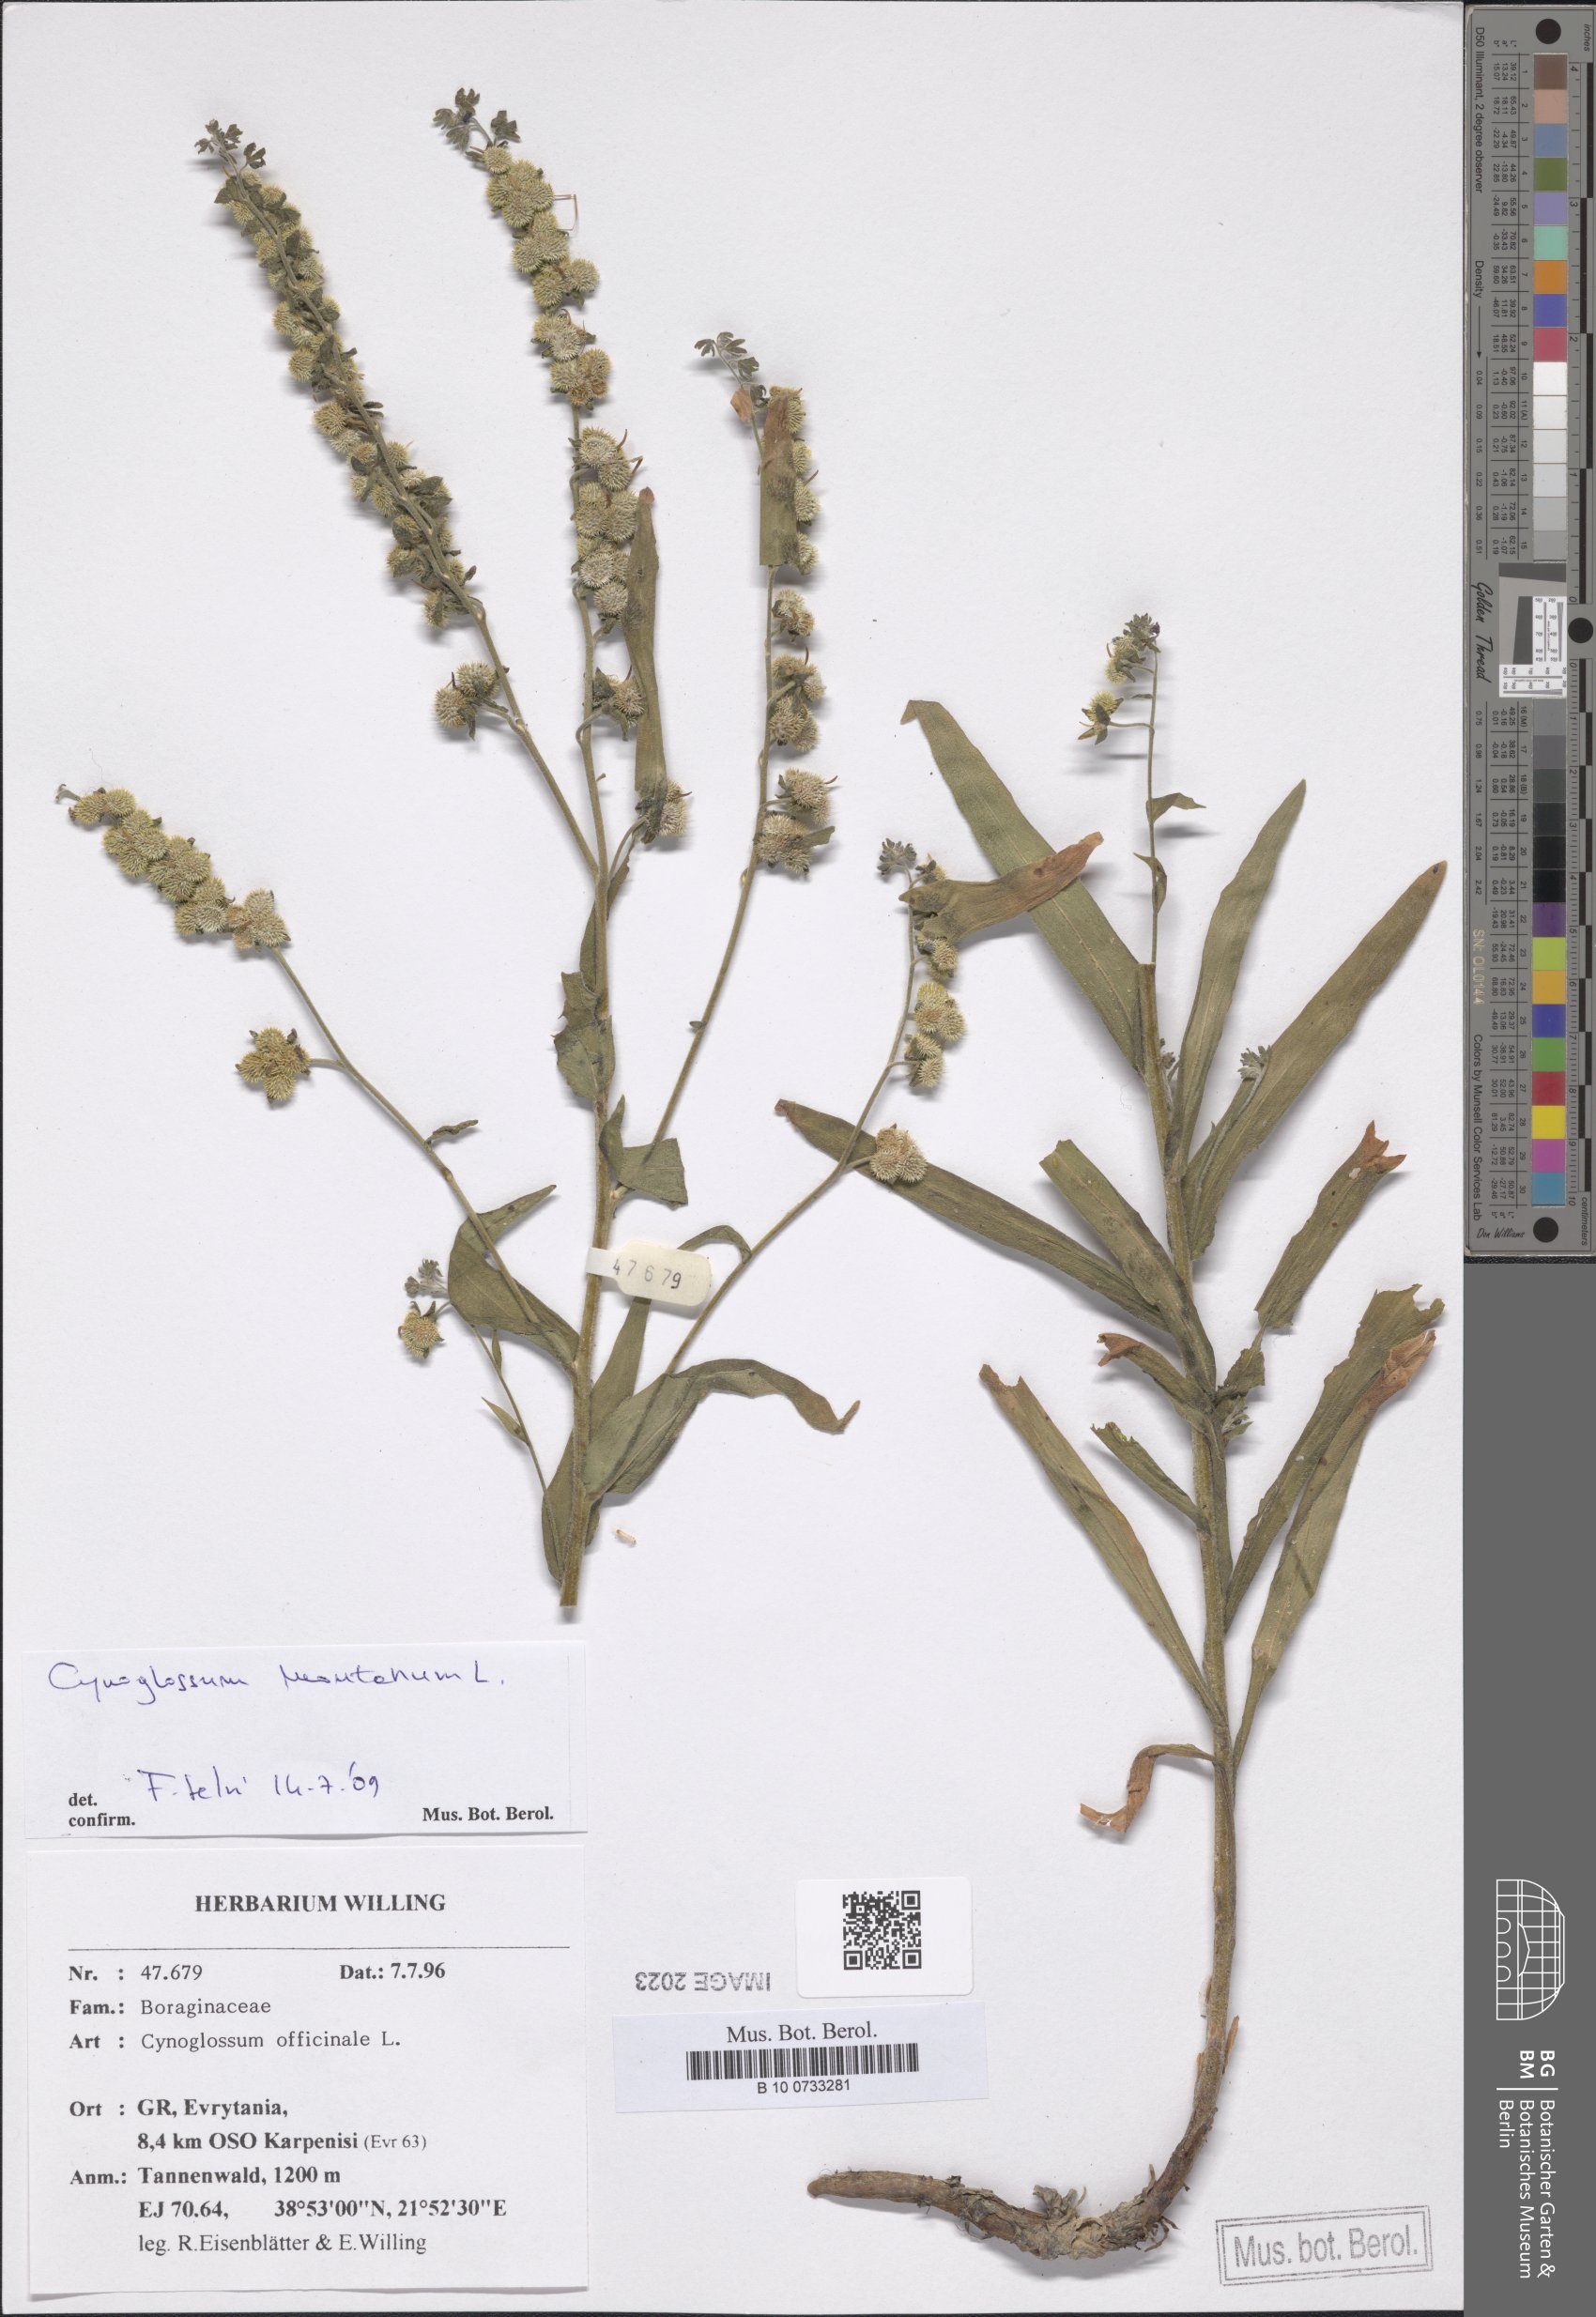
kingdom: Plantae
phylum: Tracheophyta
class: Magnoliopsida
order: Boraginales
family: Boraginaceae
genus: Cynoglossum
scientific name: Cynoglossum montanum
